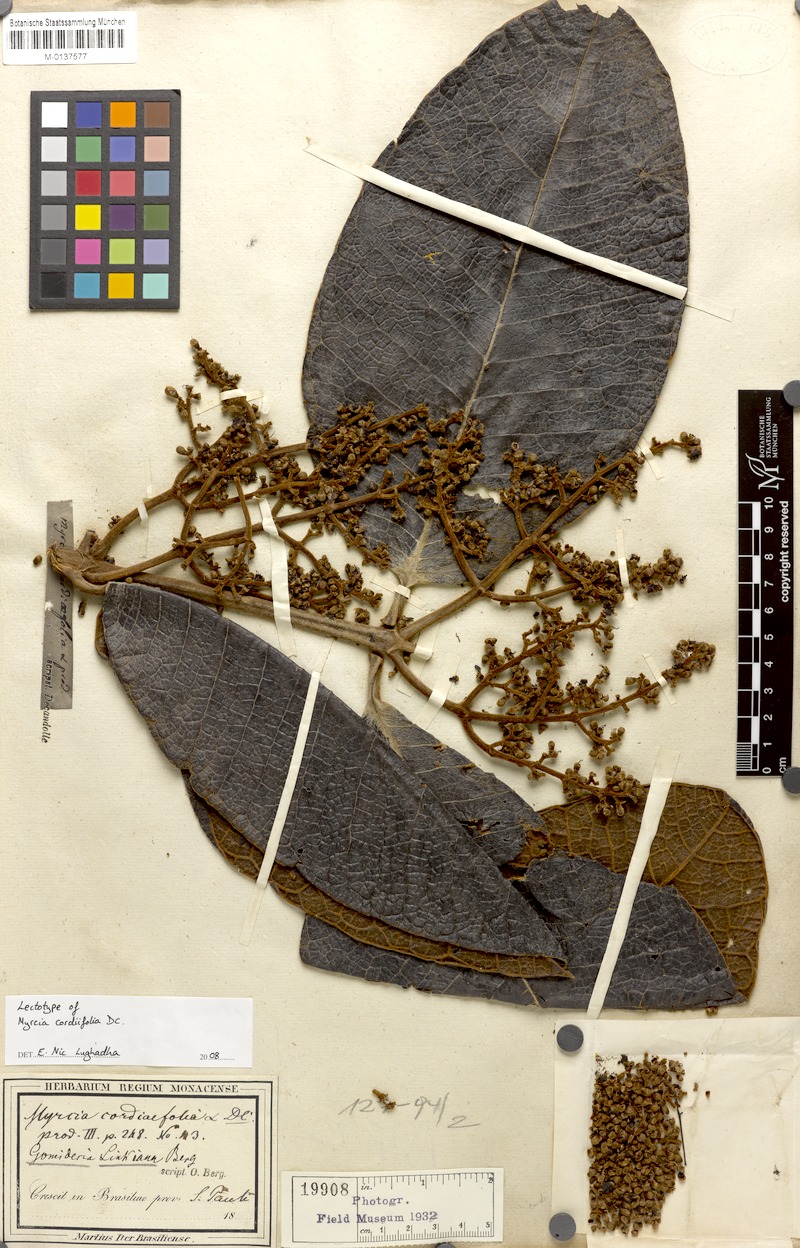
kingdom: Plantae
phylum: Tracheophyta
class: Magnoliopsida
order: Myrtales
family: Myrtaceae
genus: Myrcia
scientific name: Myrcia cordiifolia
